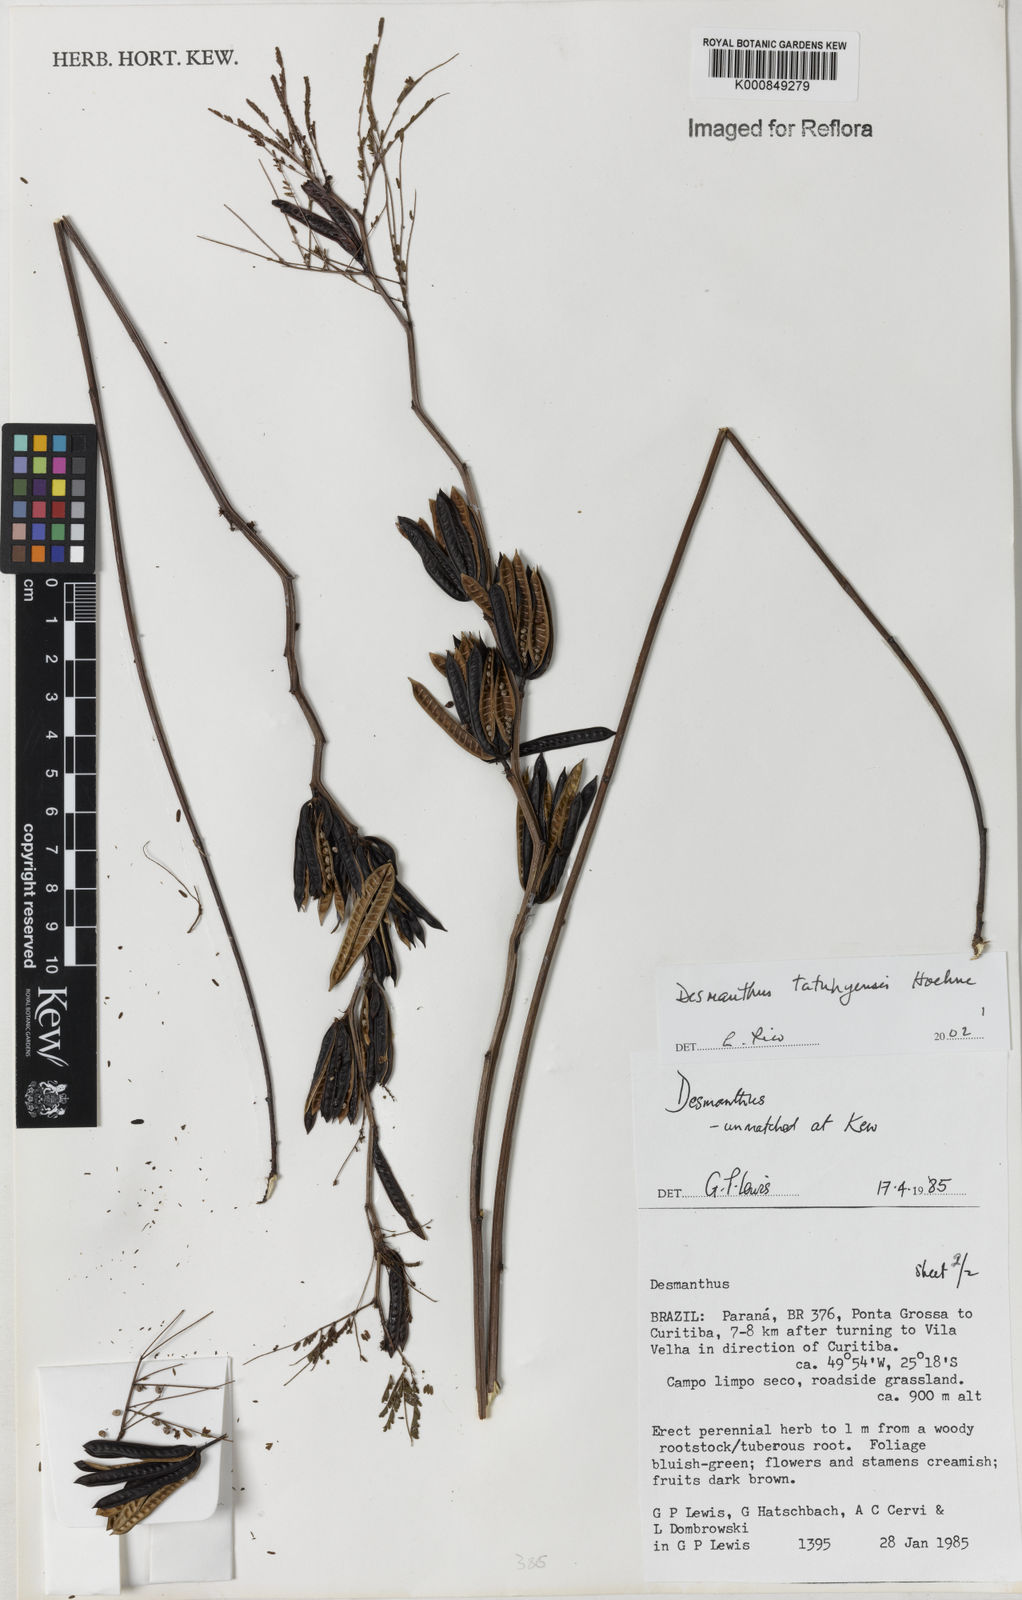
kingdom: Plantae
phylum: Tracheophyta
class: Magnoliopsida
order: Fabales
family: Fabaceae
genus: Desmanthus
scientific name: Desmanthus tatuhyensis
